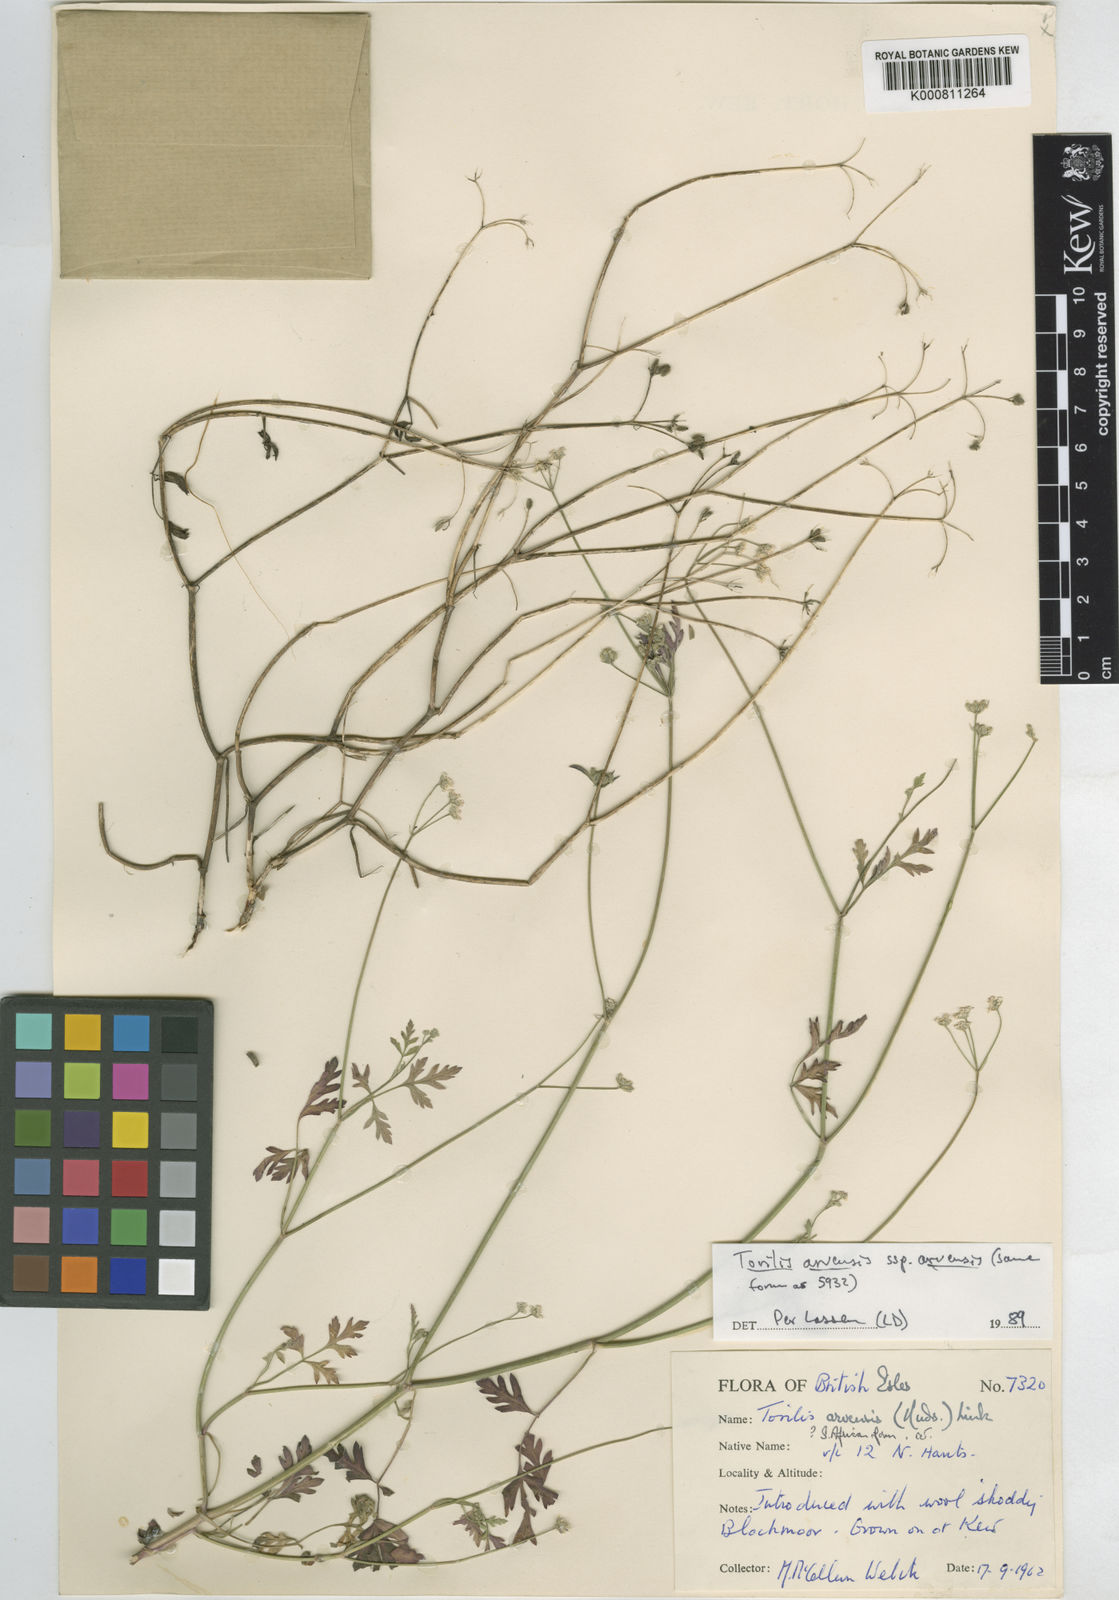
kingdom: Plantae
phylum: Tracheophyta
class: Magnoliopsida
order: Apiales
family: Apiaceae
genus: Torilis
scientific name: Torilis arvensis
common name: Spreading hedge-parsley
